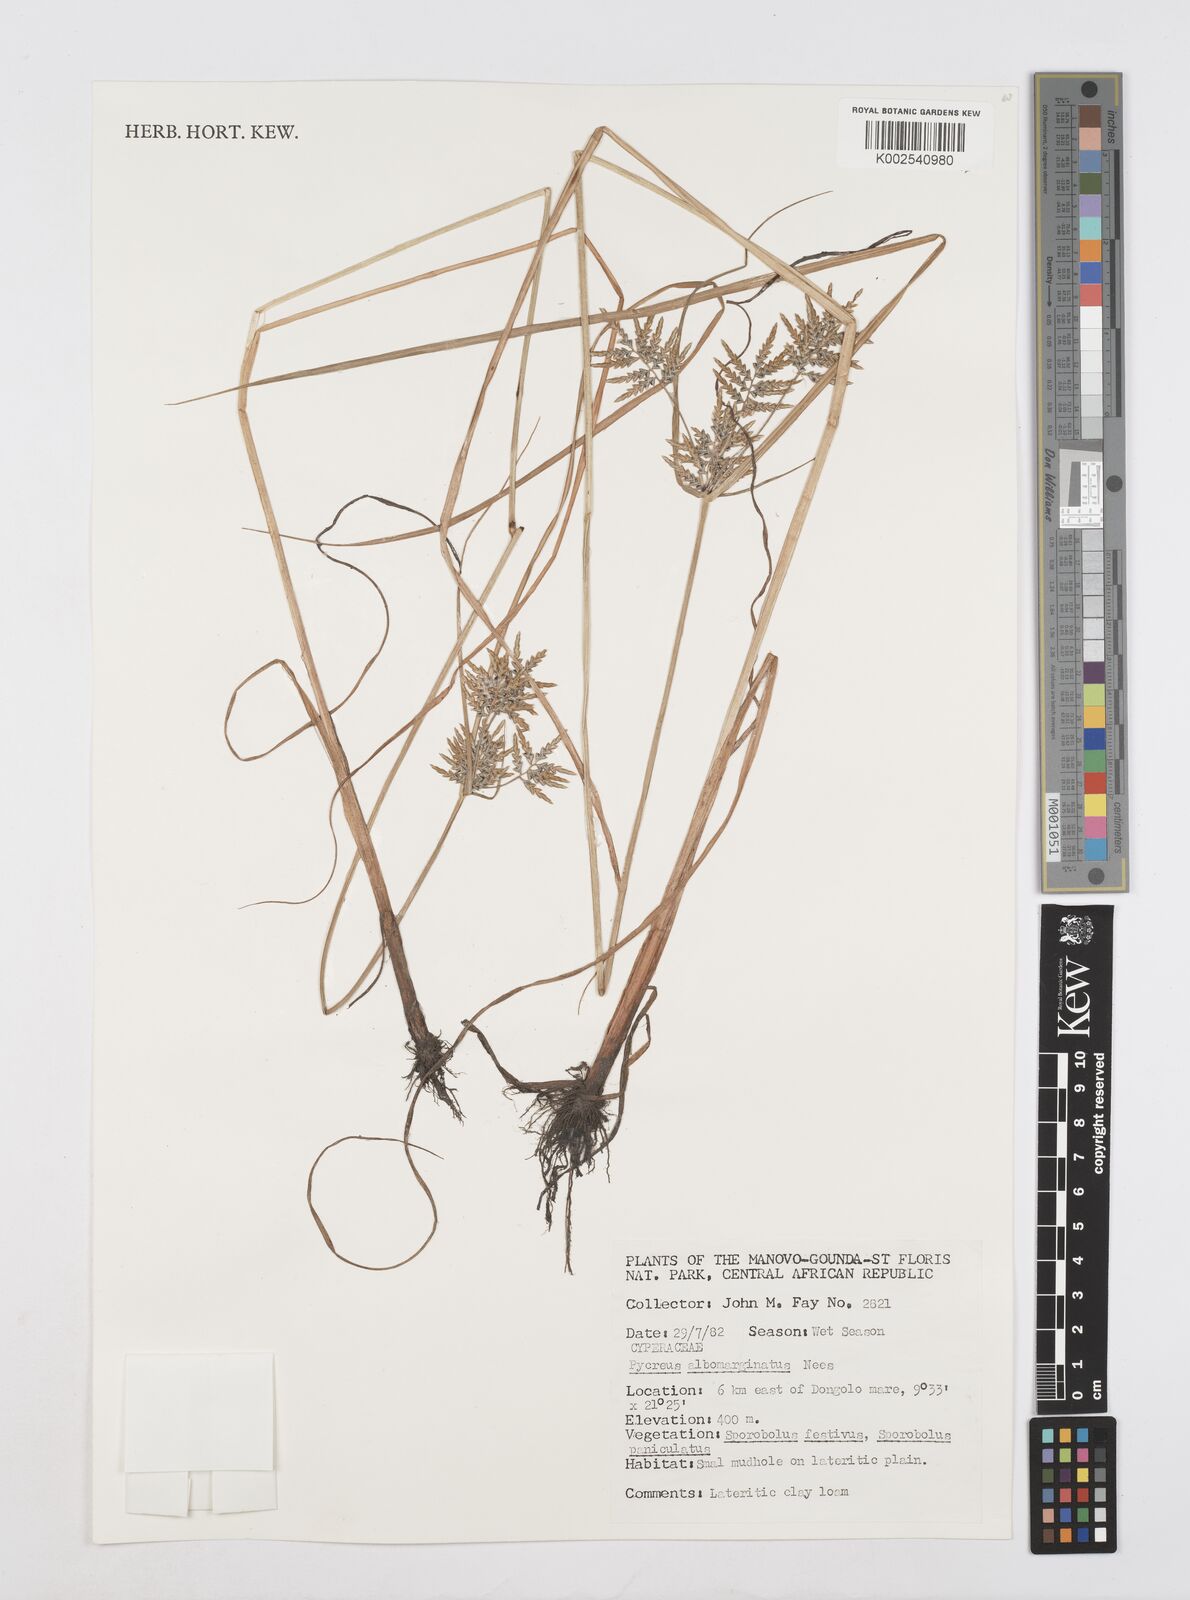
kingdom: Plantae
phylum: Tracheophyta
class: Liliopsida
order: Poales
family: Cyperaceae
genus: Cyperus
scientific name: Cyperus macrostachyos
